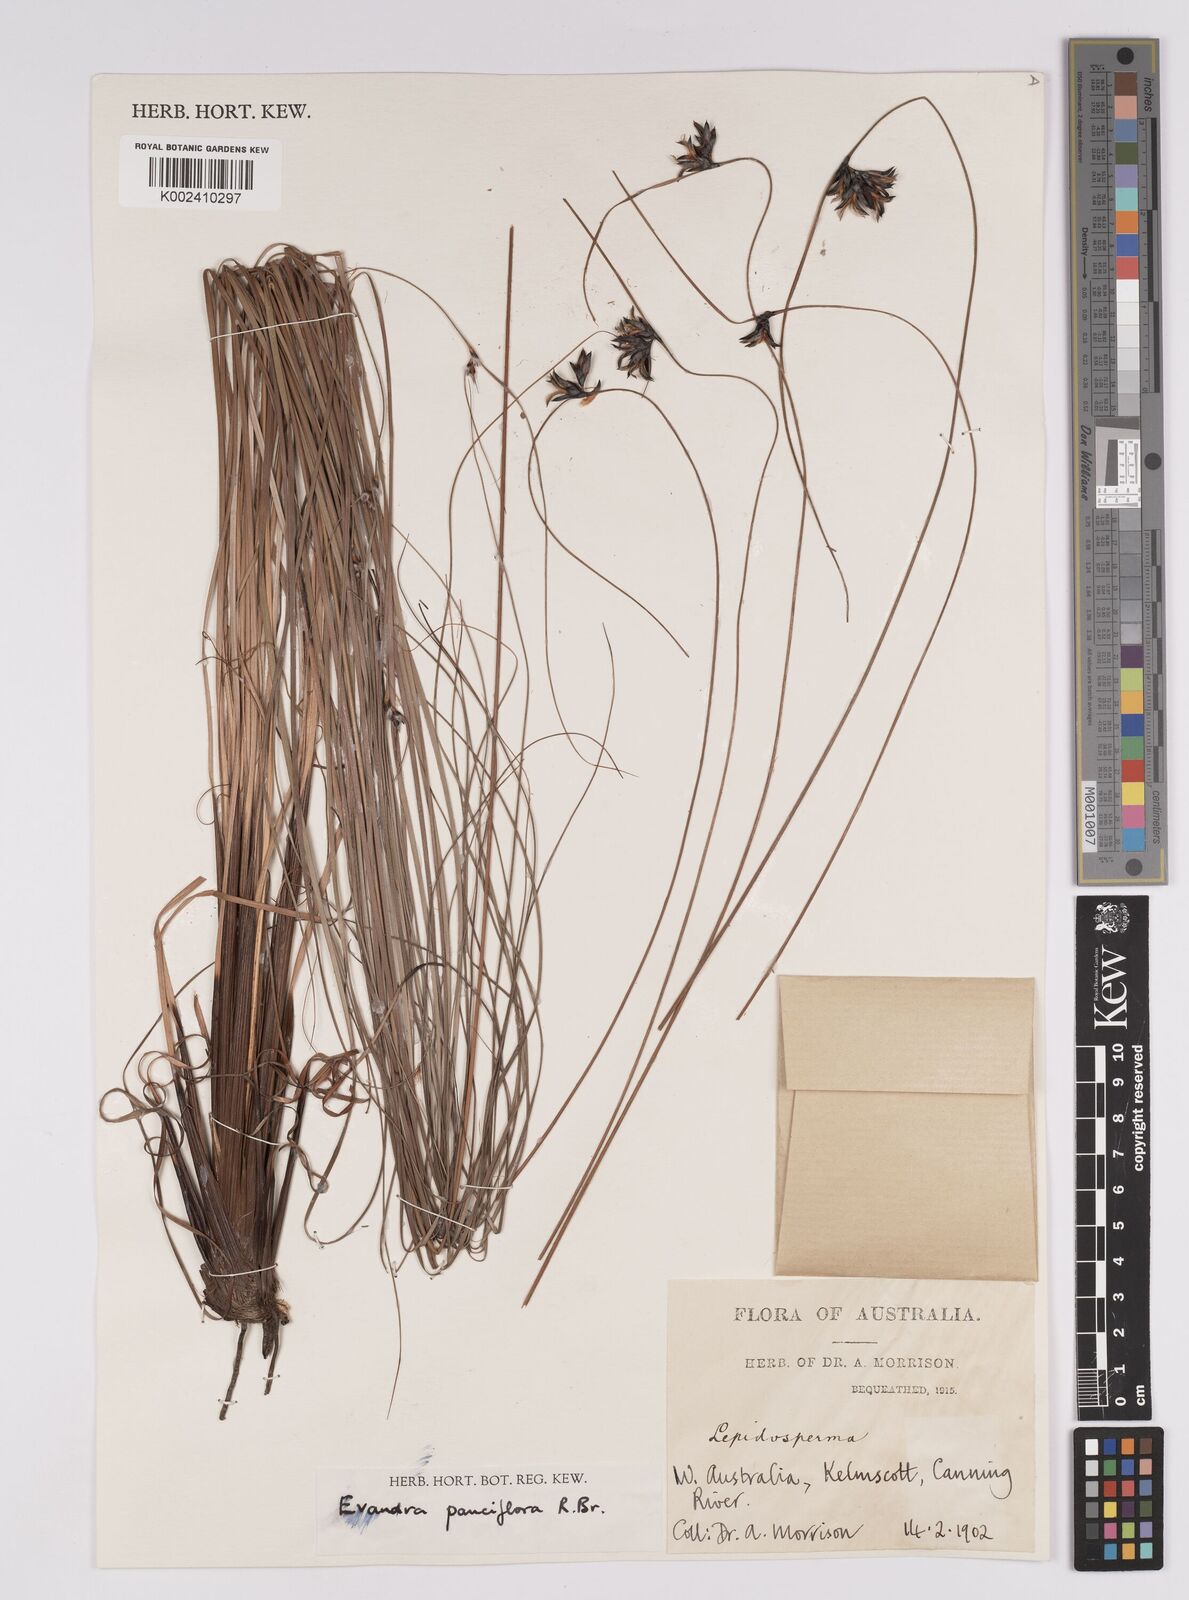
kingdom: Plantae
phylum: Tracheophyta
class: Liliopsida
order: Poales
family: Cyperaceae
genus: Evandra
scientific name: Evandra pauciflora
